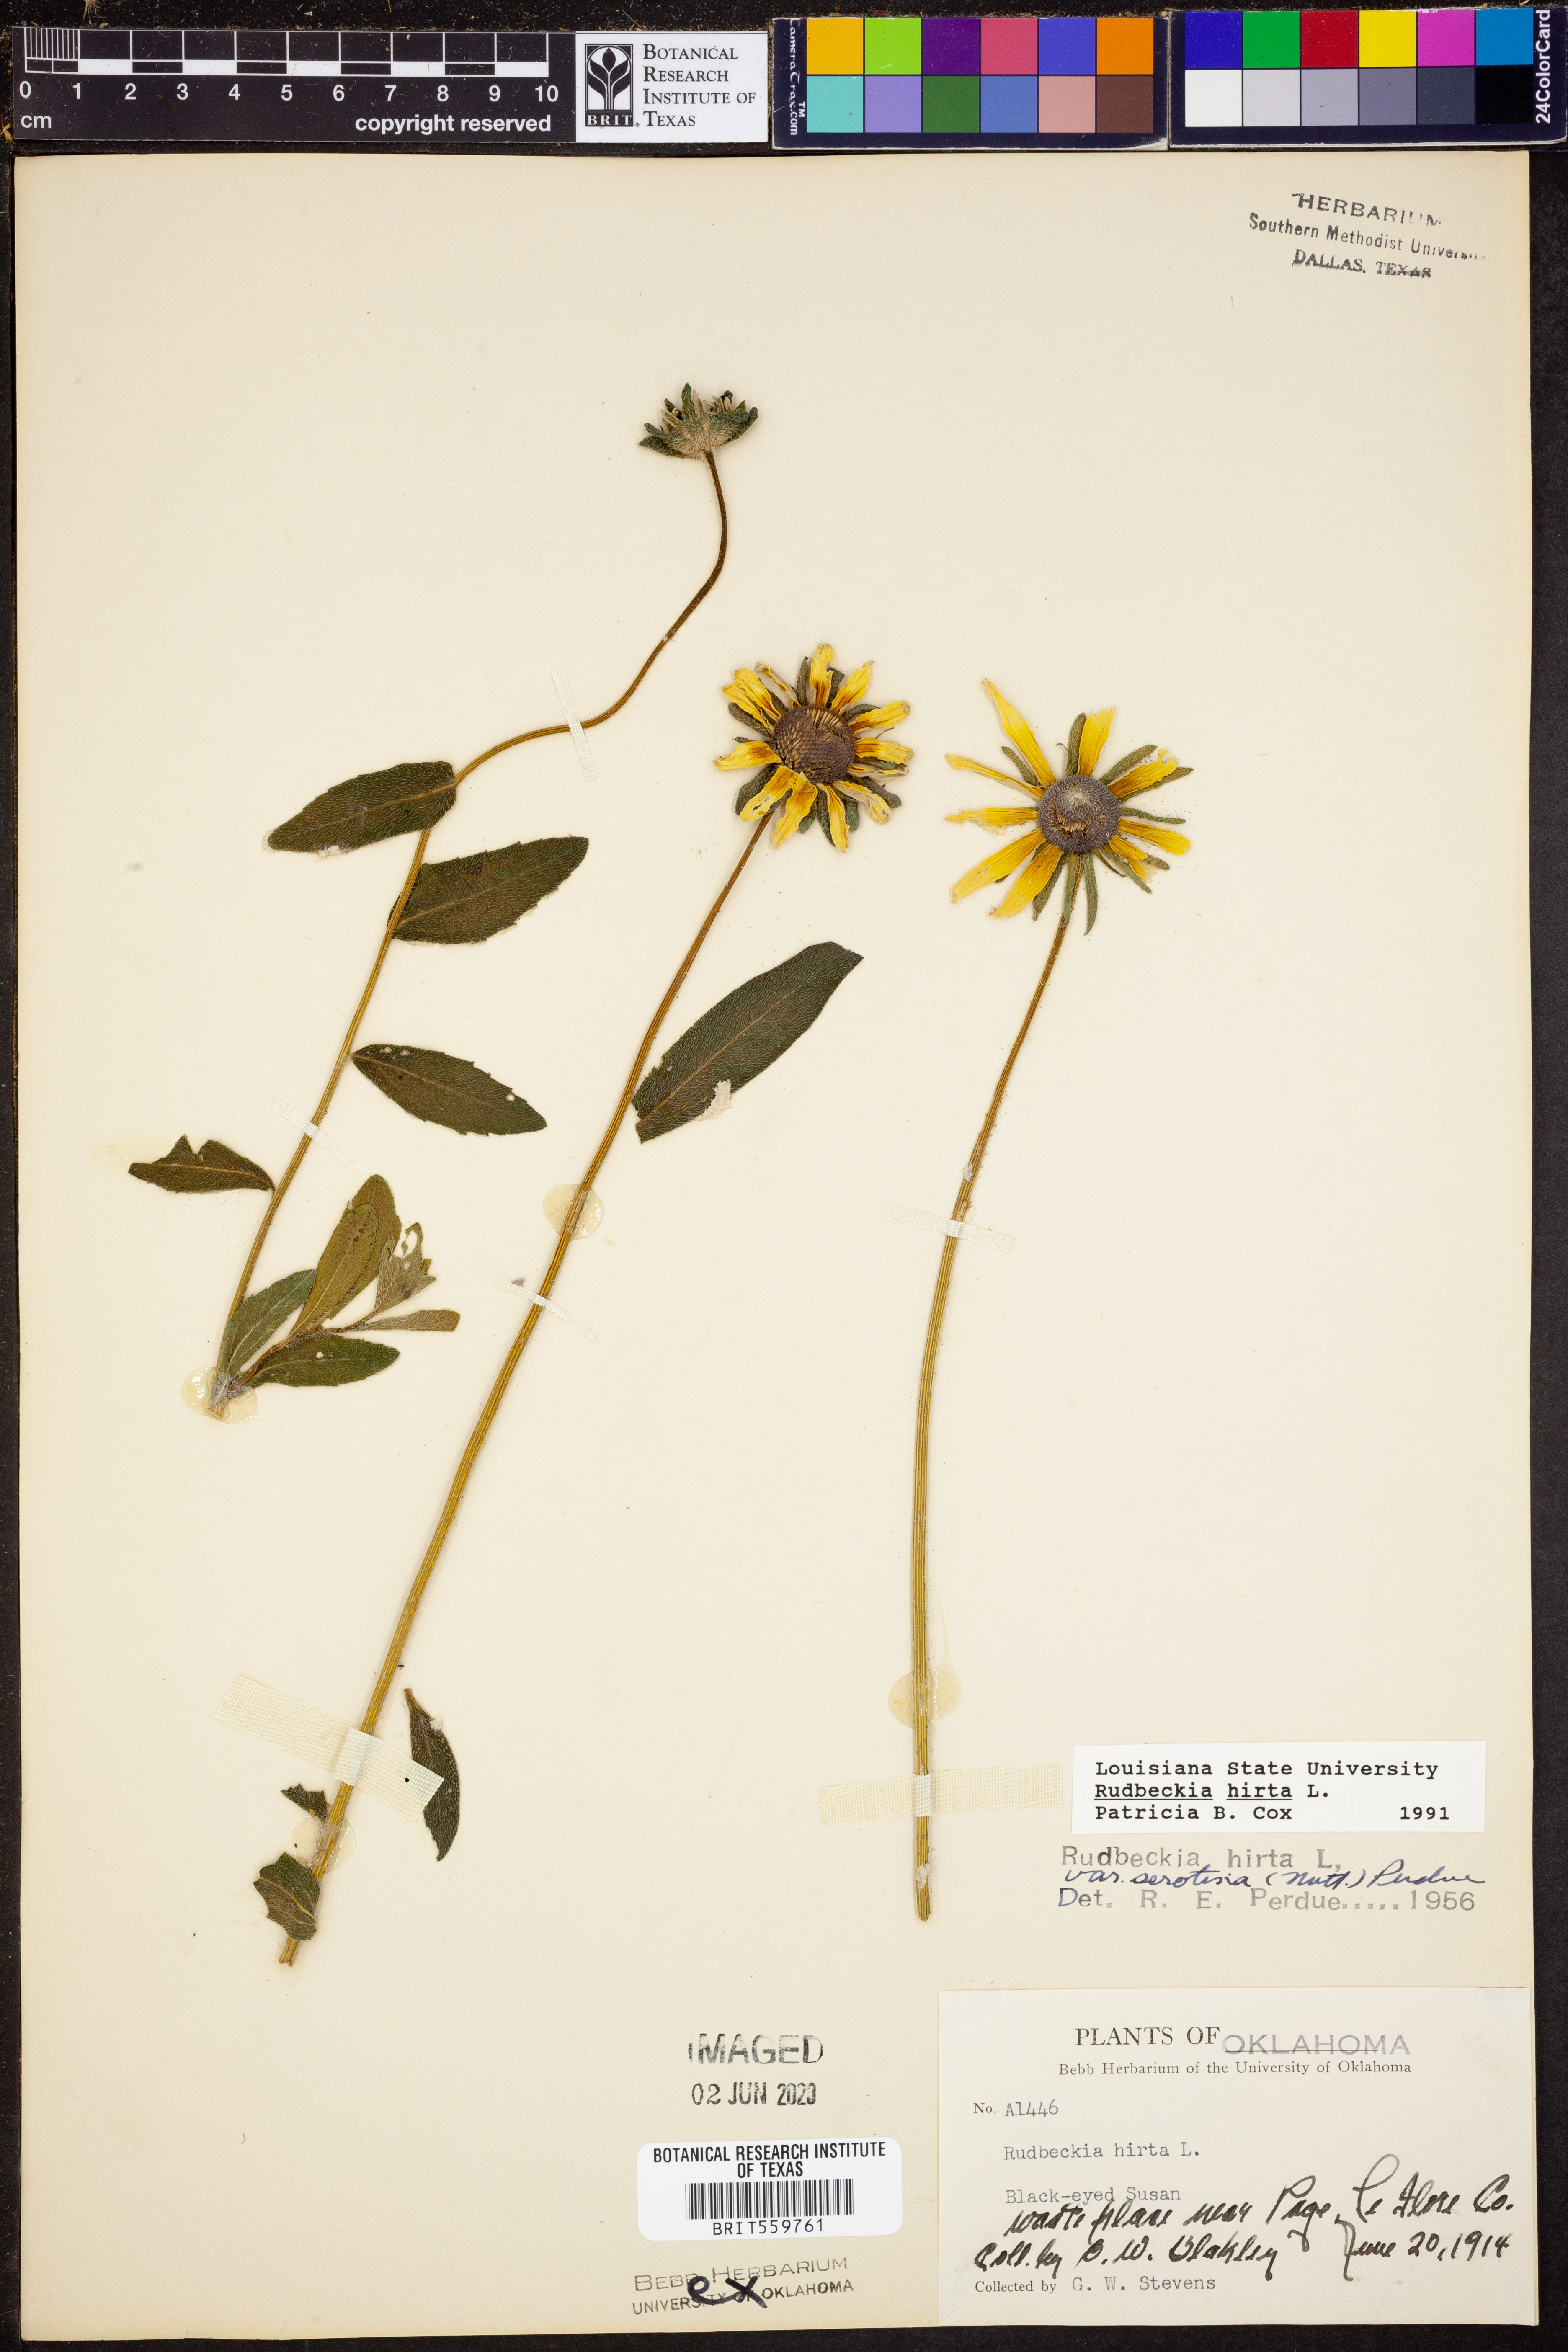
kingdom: Plantae
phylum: Tracheophyta
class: Magnoliopsida
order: Asterales
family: Asteraceae
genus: Rudbeckia
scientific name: Rudbeckia hirta
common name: Black-eyed-susan
